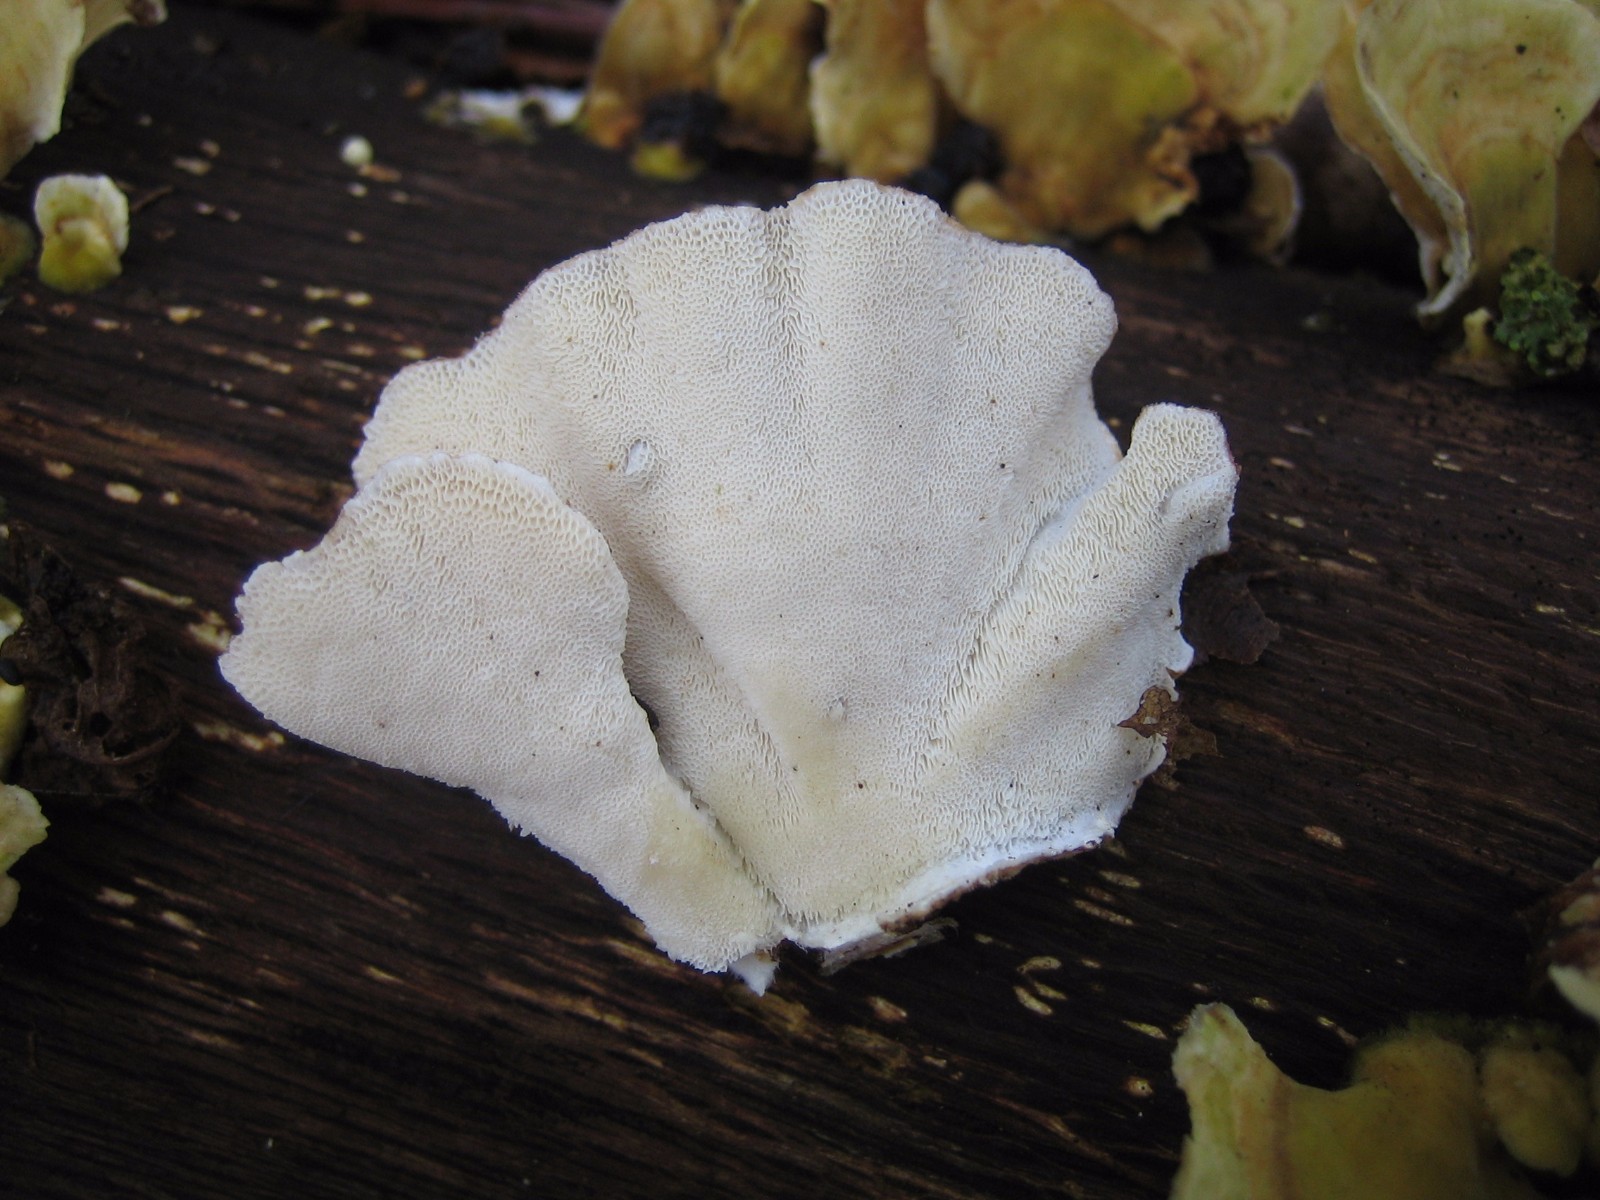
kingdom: Fungi
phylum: Basidiomycota
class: Agaricomycetes
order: Polyporales
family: Polyporaceae
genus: Trametes
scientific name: Trametes ochracea
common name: bæltet læderporesvamp
